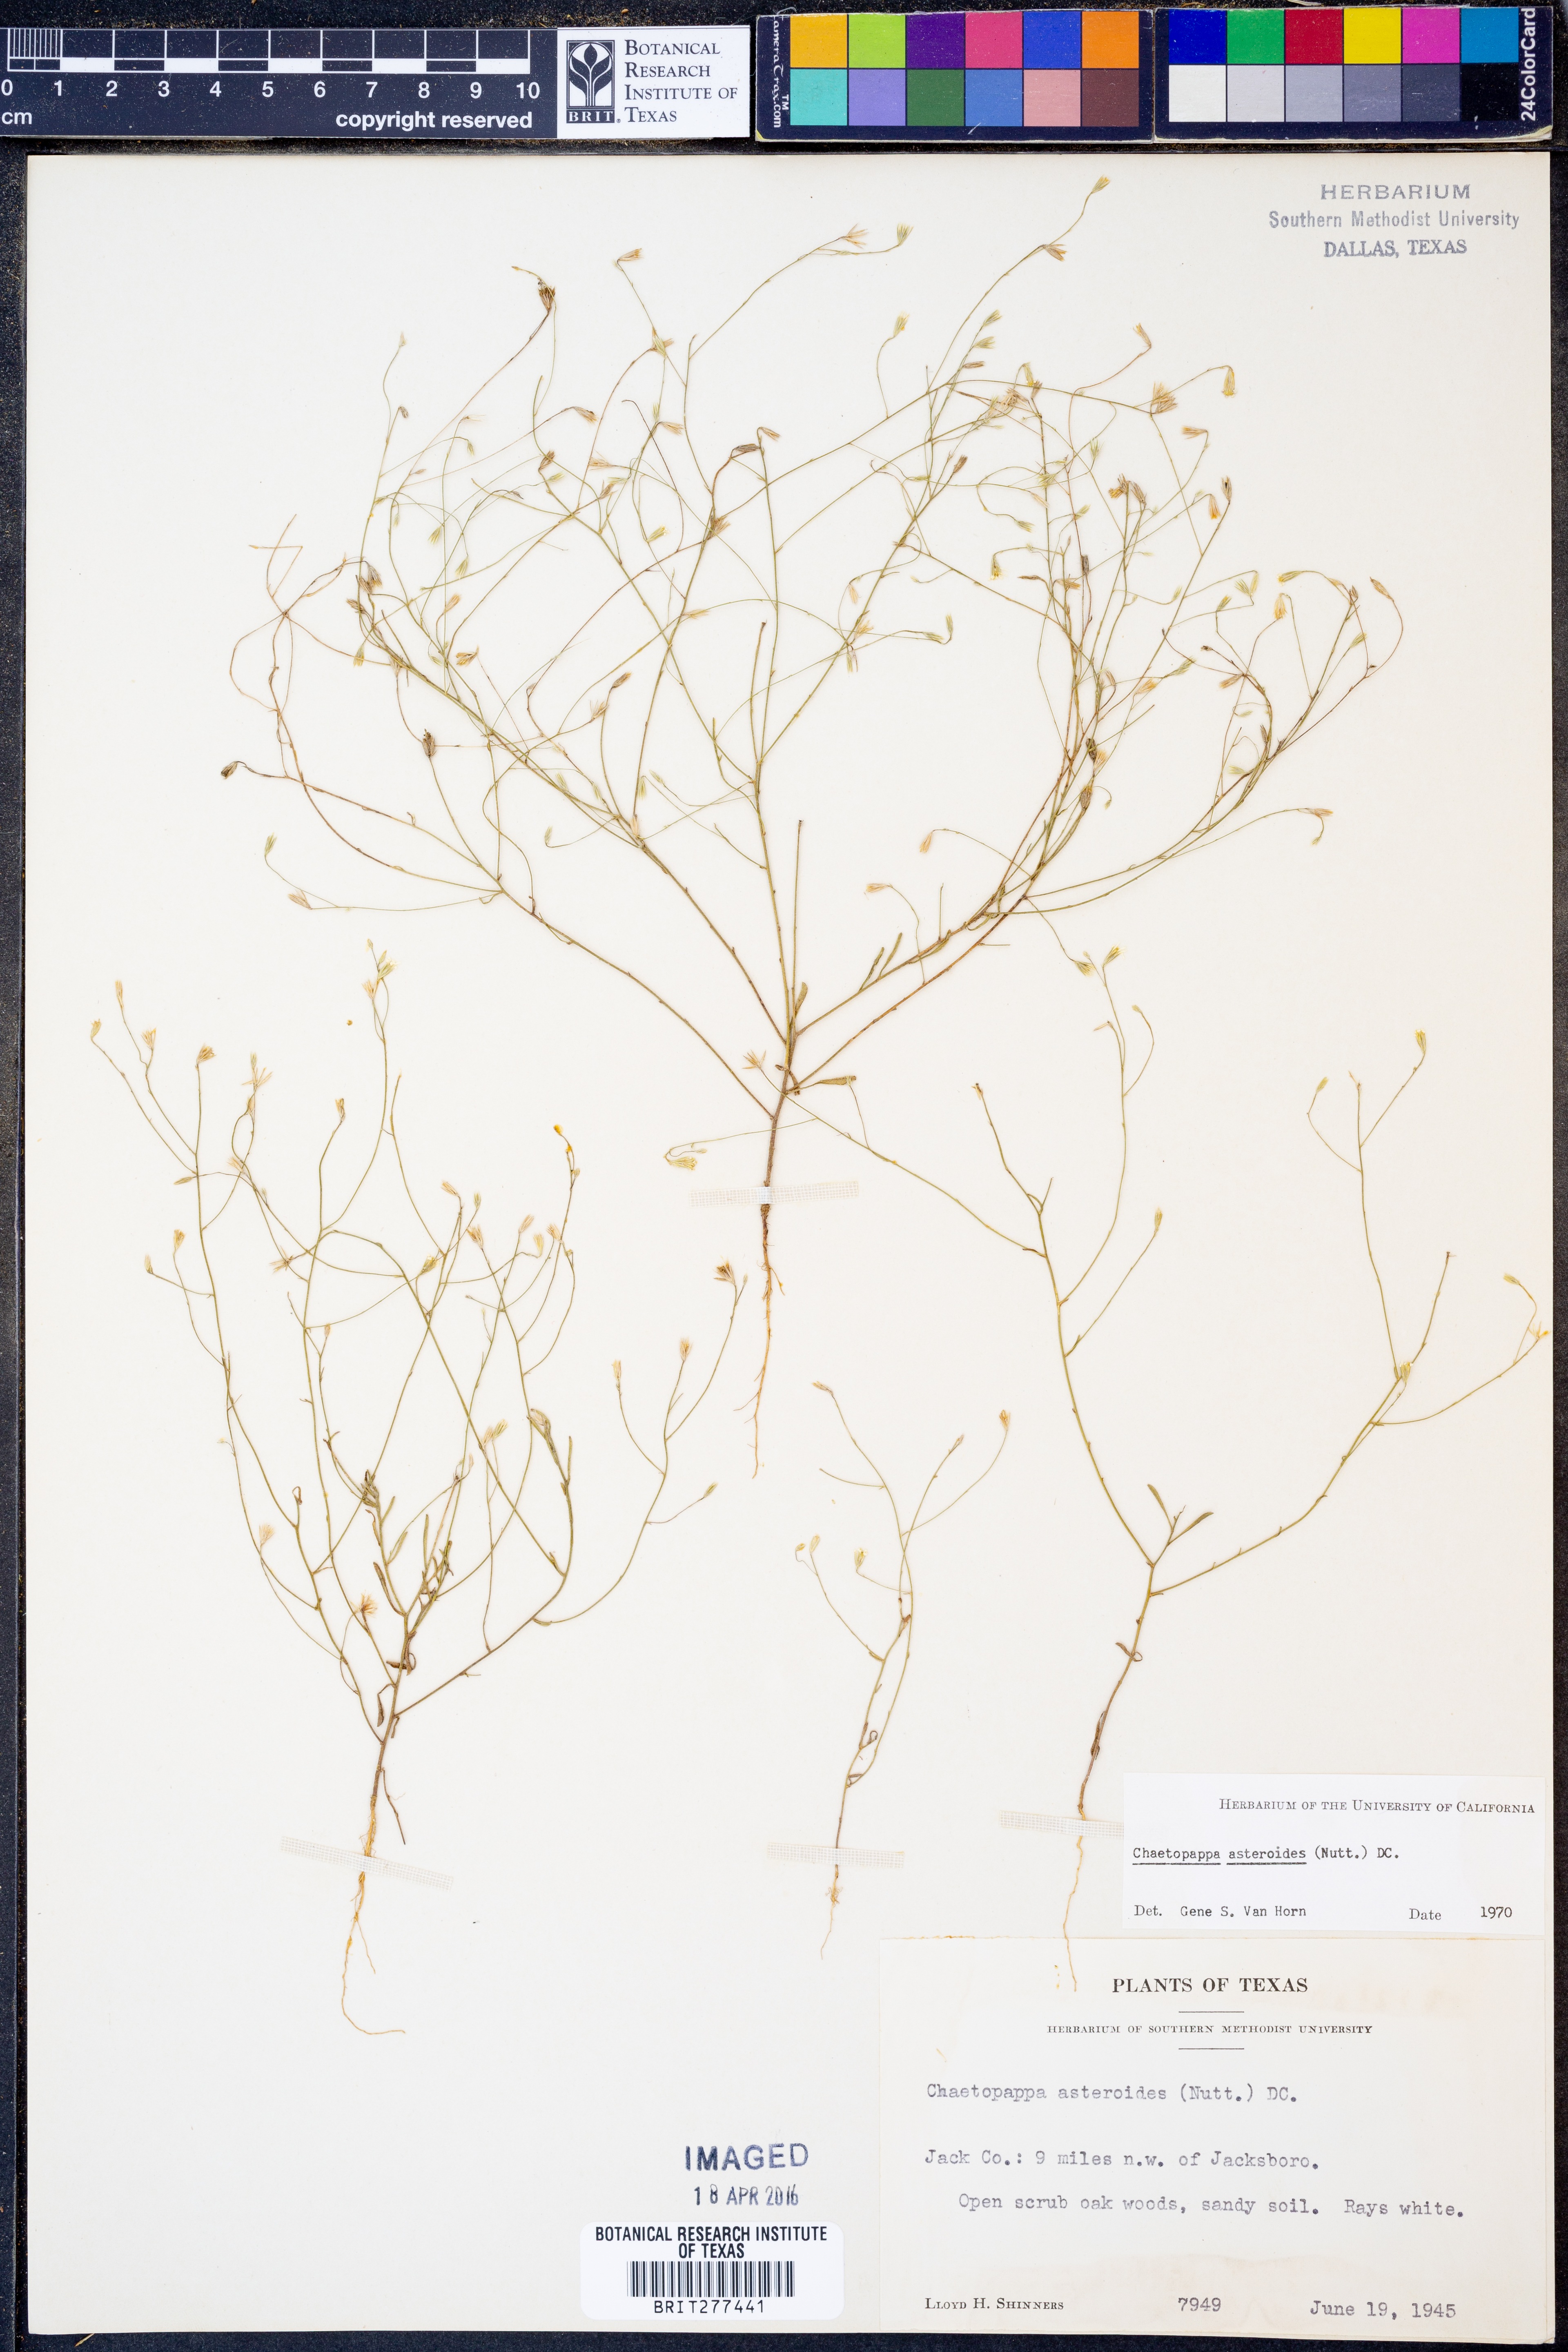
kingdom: Plantae
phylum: Tracheophyta
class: Magnoliopsida
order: Asterales
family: Asteraceae
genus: Chaetopappa
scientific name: Chaetopappa asteroides
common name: Tiny lazy daisy
